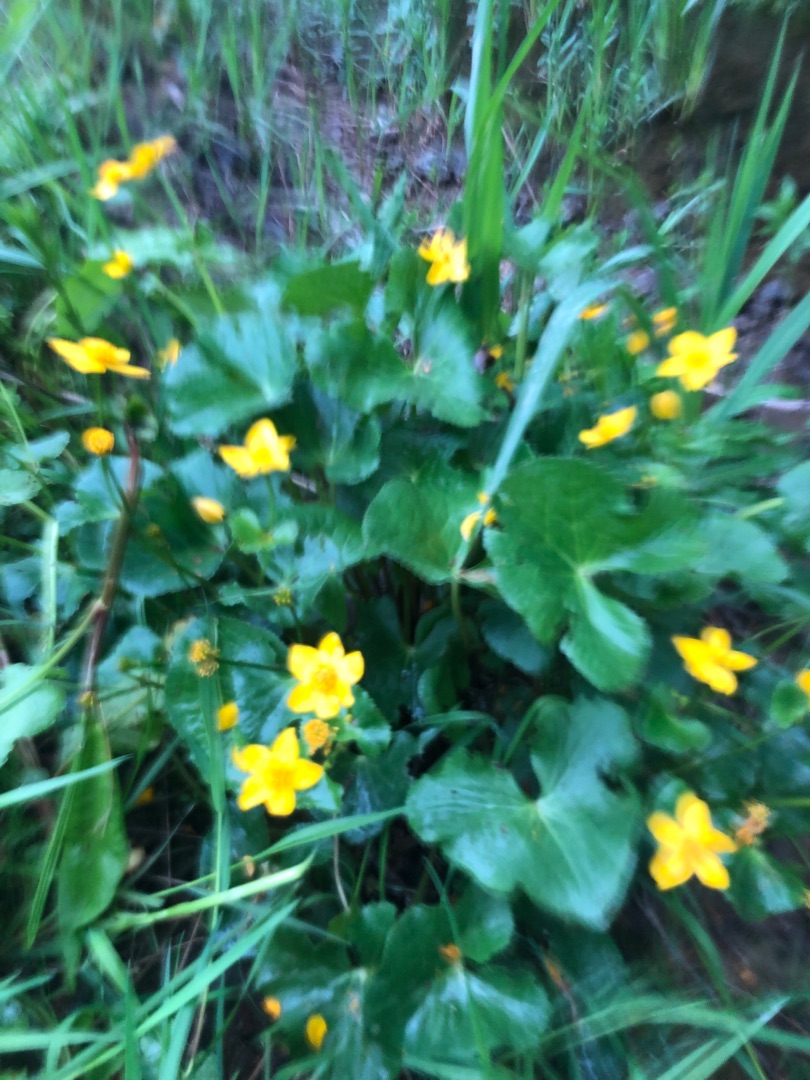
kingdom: Plantae
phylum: Tracheophyta
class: Magnoliopsida
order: Ranunculales
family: Ranunculaceae
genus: Caltha
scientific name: Caltha palustris
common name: Eng-kabbeleje
